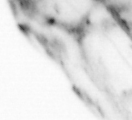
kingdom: Animalia
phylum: Chaetognatha
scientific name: Chaetognatha
